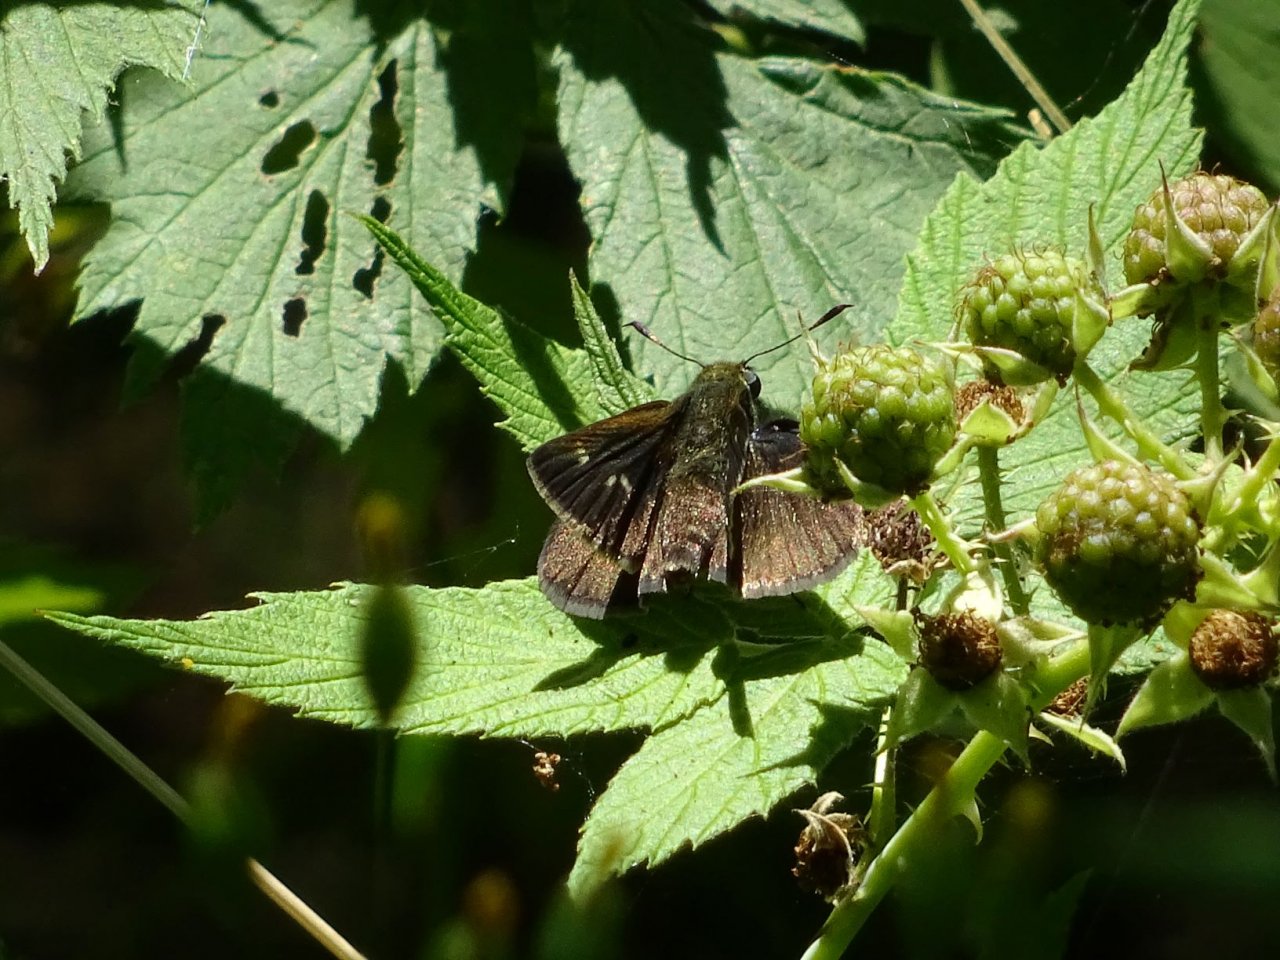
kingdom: Animalia
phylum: Arthropoda
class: Insecta
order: Lepidoptera
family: Hesperiidae
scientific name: Hesperiidae
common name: Skippers
